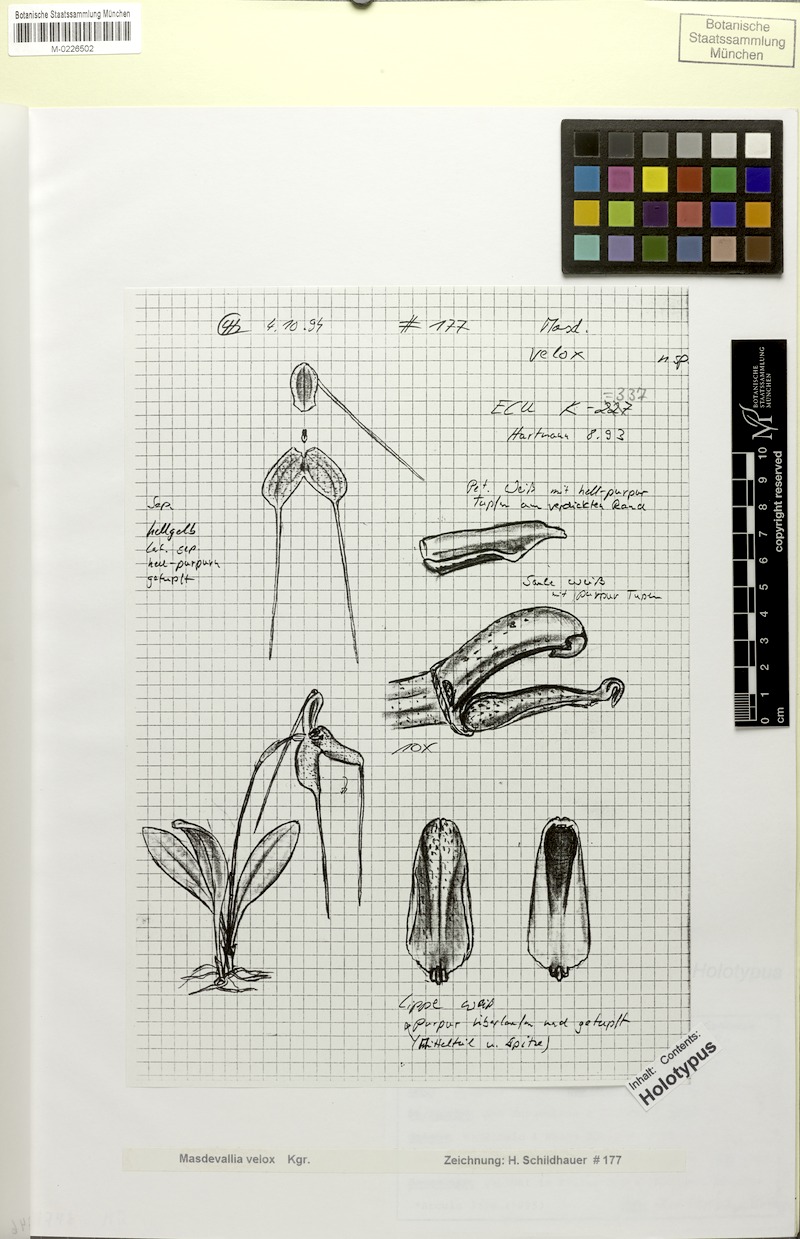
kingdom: Plantae
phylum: Tracheophyta
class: Liliopsida
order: Asparagales
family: Orchidaceae
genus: Masdevallia
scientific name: Masdevallia velox
